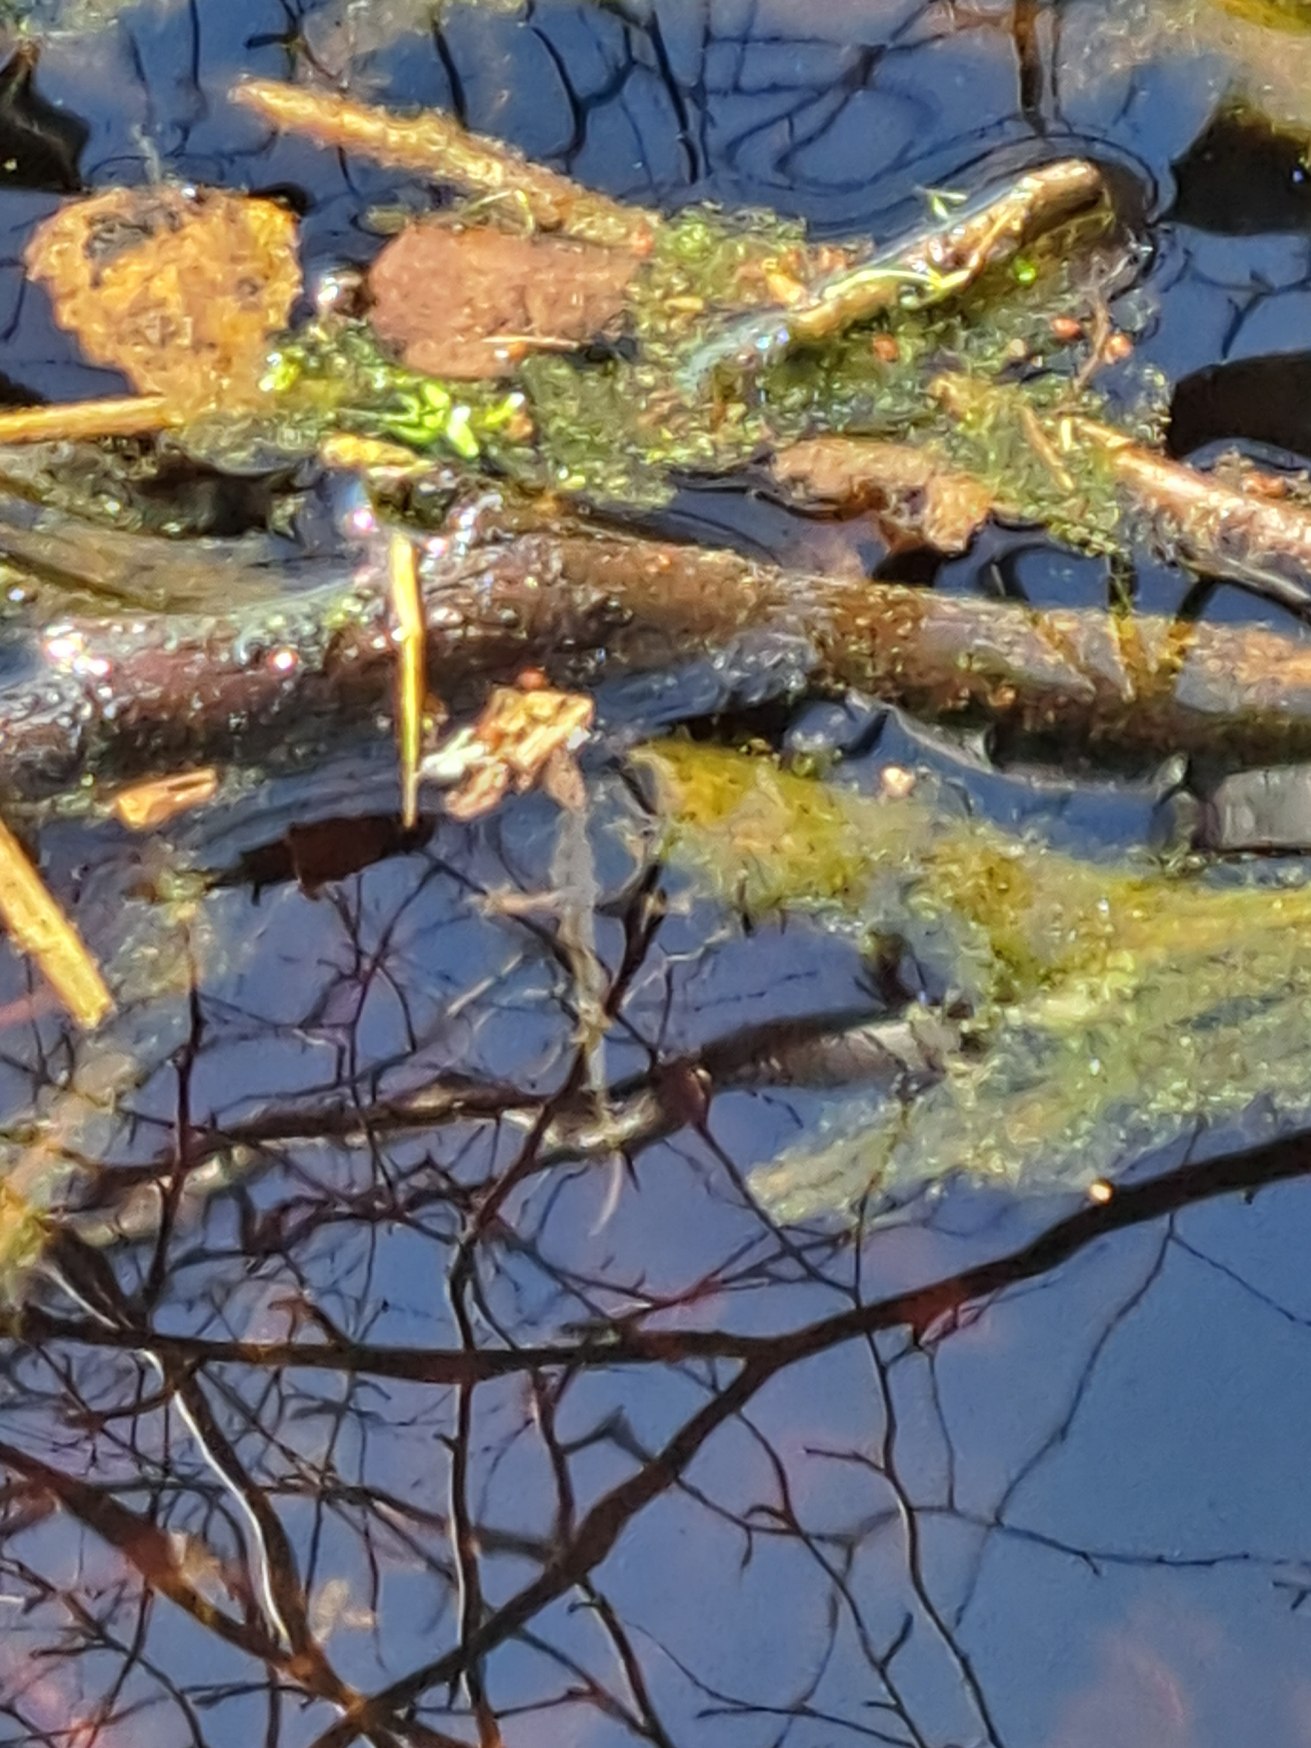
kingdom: Animalia
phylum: Chordata
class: Amphibia
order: Caudata
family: Salamandridae
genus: Lissotriton
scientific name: Lissotriton vulgaris
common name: Lille vandsalamander
